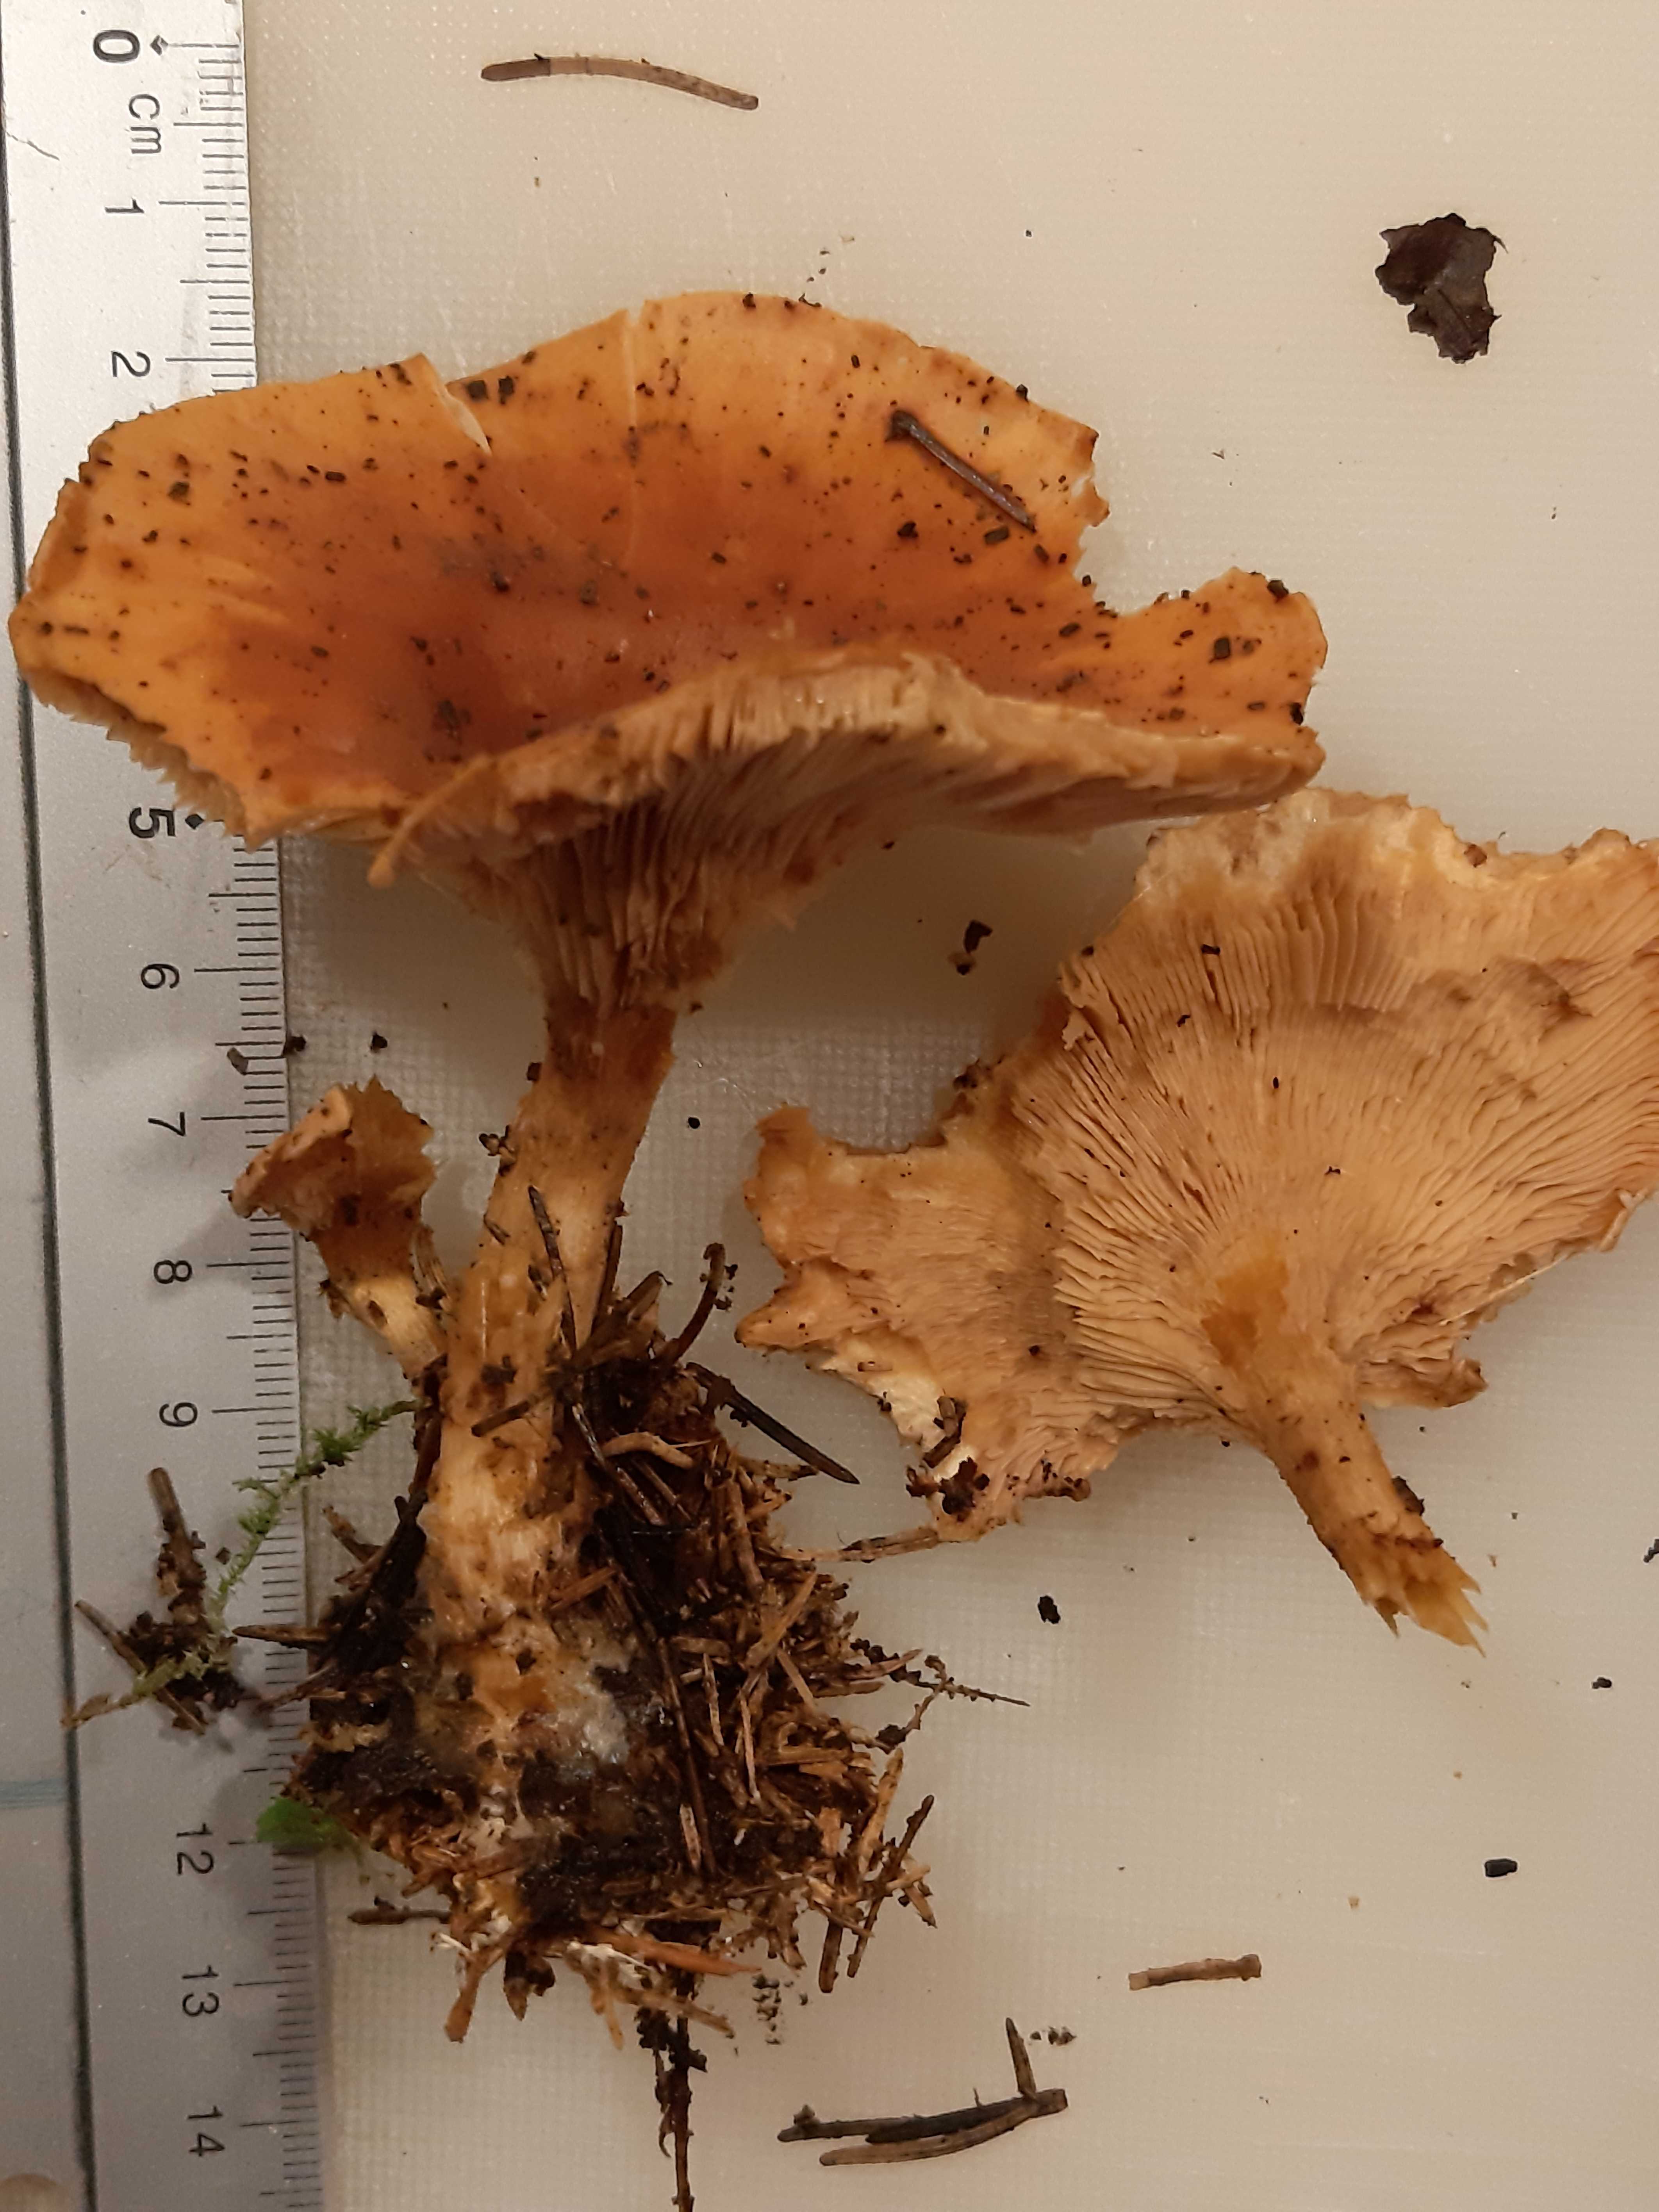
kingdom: Fungi
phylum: Basidiomycota
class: Agaricomycetes
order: Agaricales
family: Tricholomataceae
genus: Paralepista
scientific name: Paralepista flaccida
